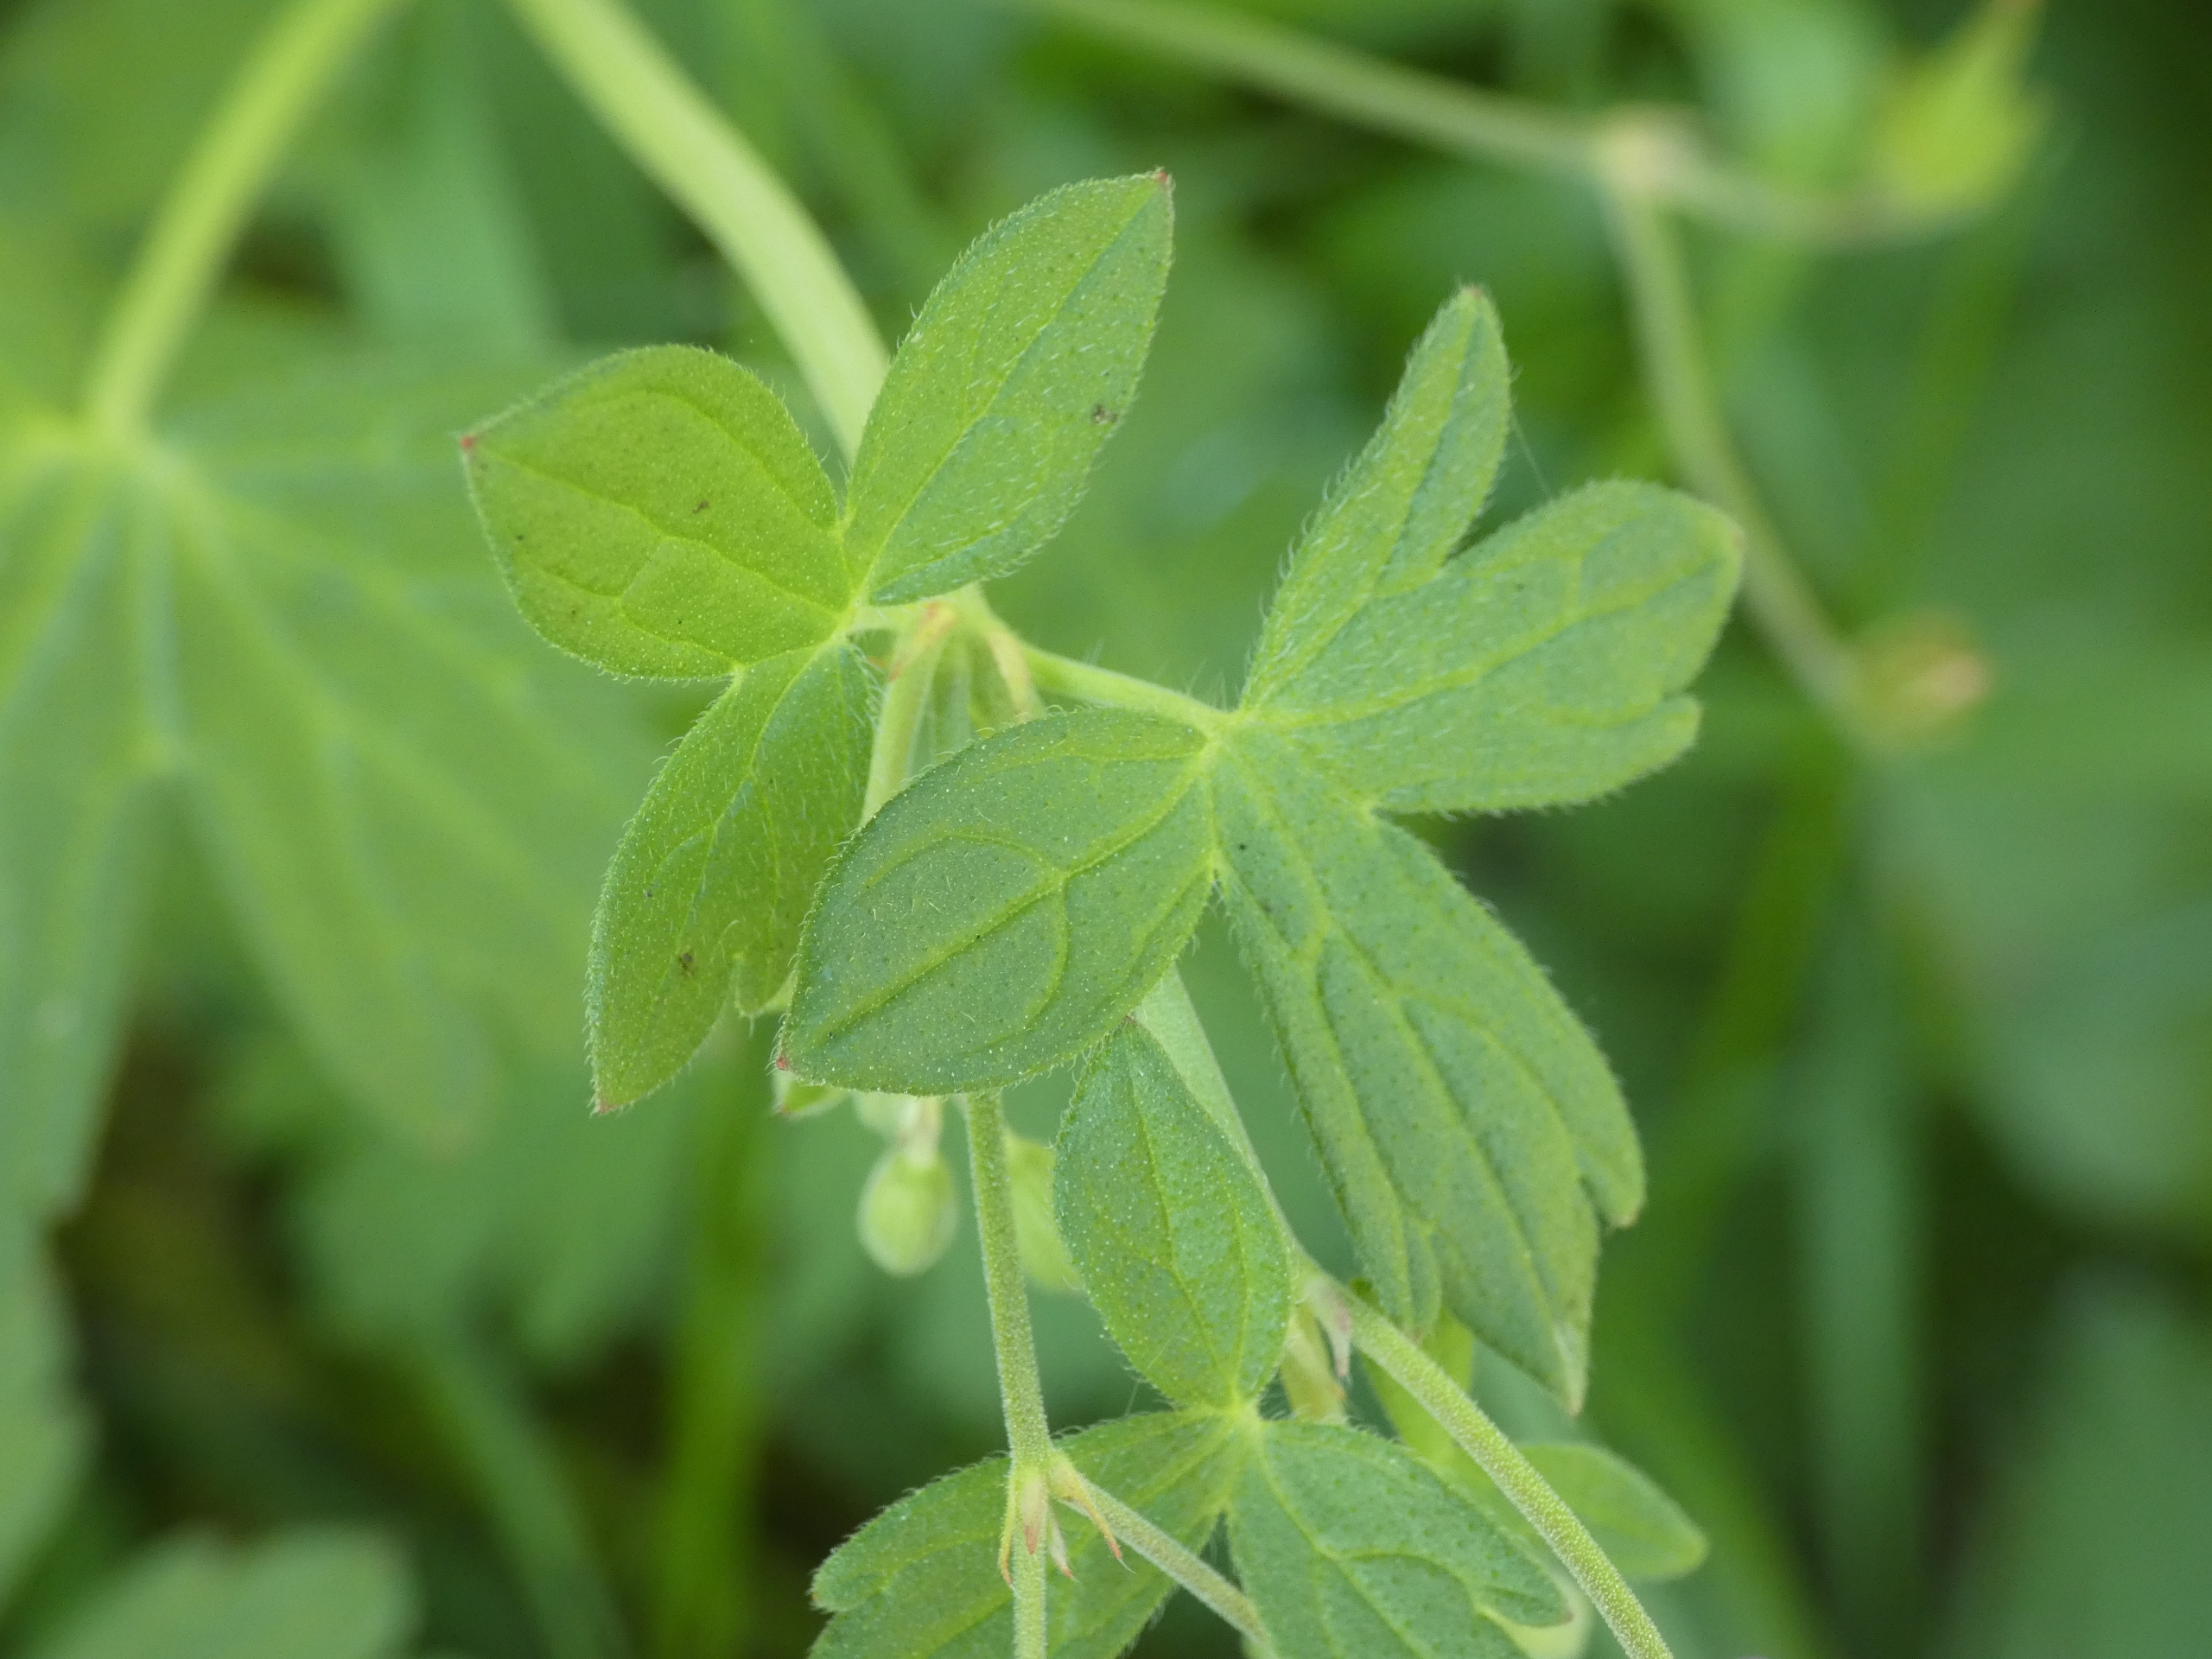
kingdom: Plantae
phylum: Tracheophyta
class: Magnoliopsida
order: Geraniales
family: Geraniaceae
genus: Geranium
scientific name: Geranium pyrenaicum
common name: Pyrenæisk storkenæb
